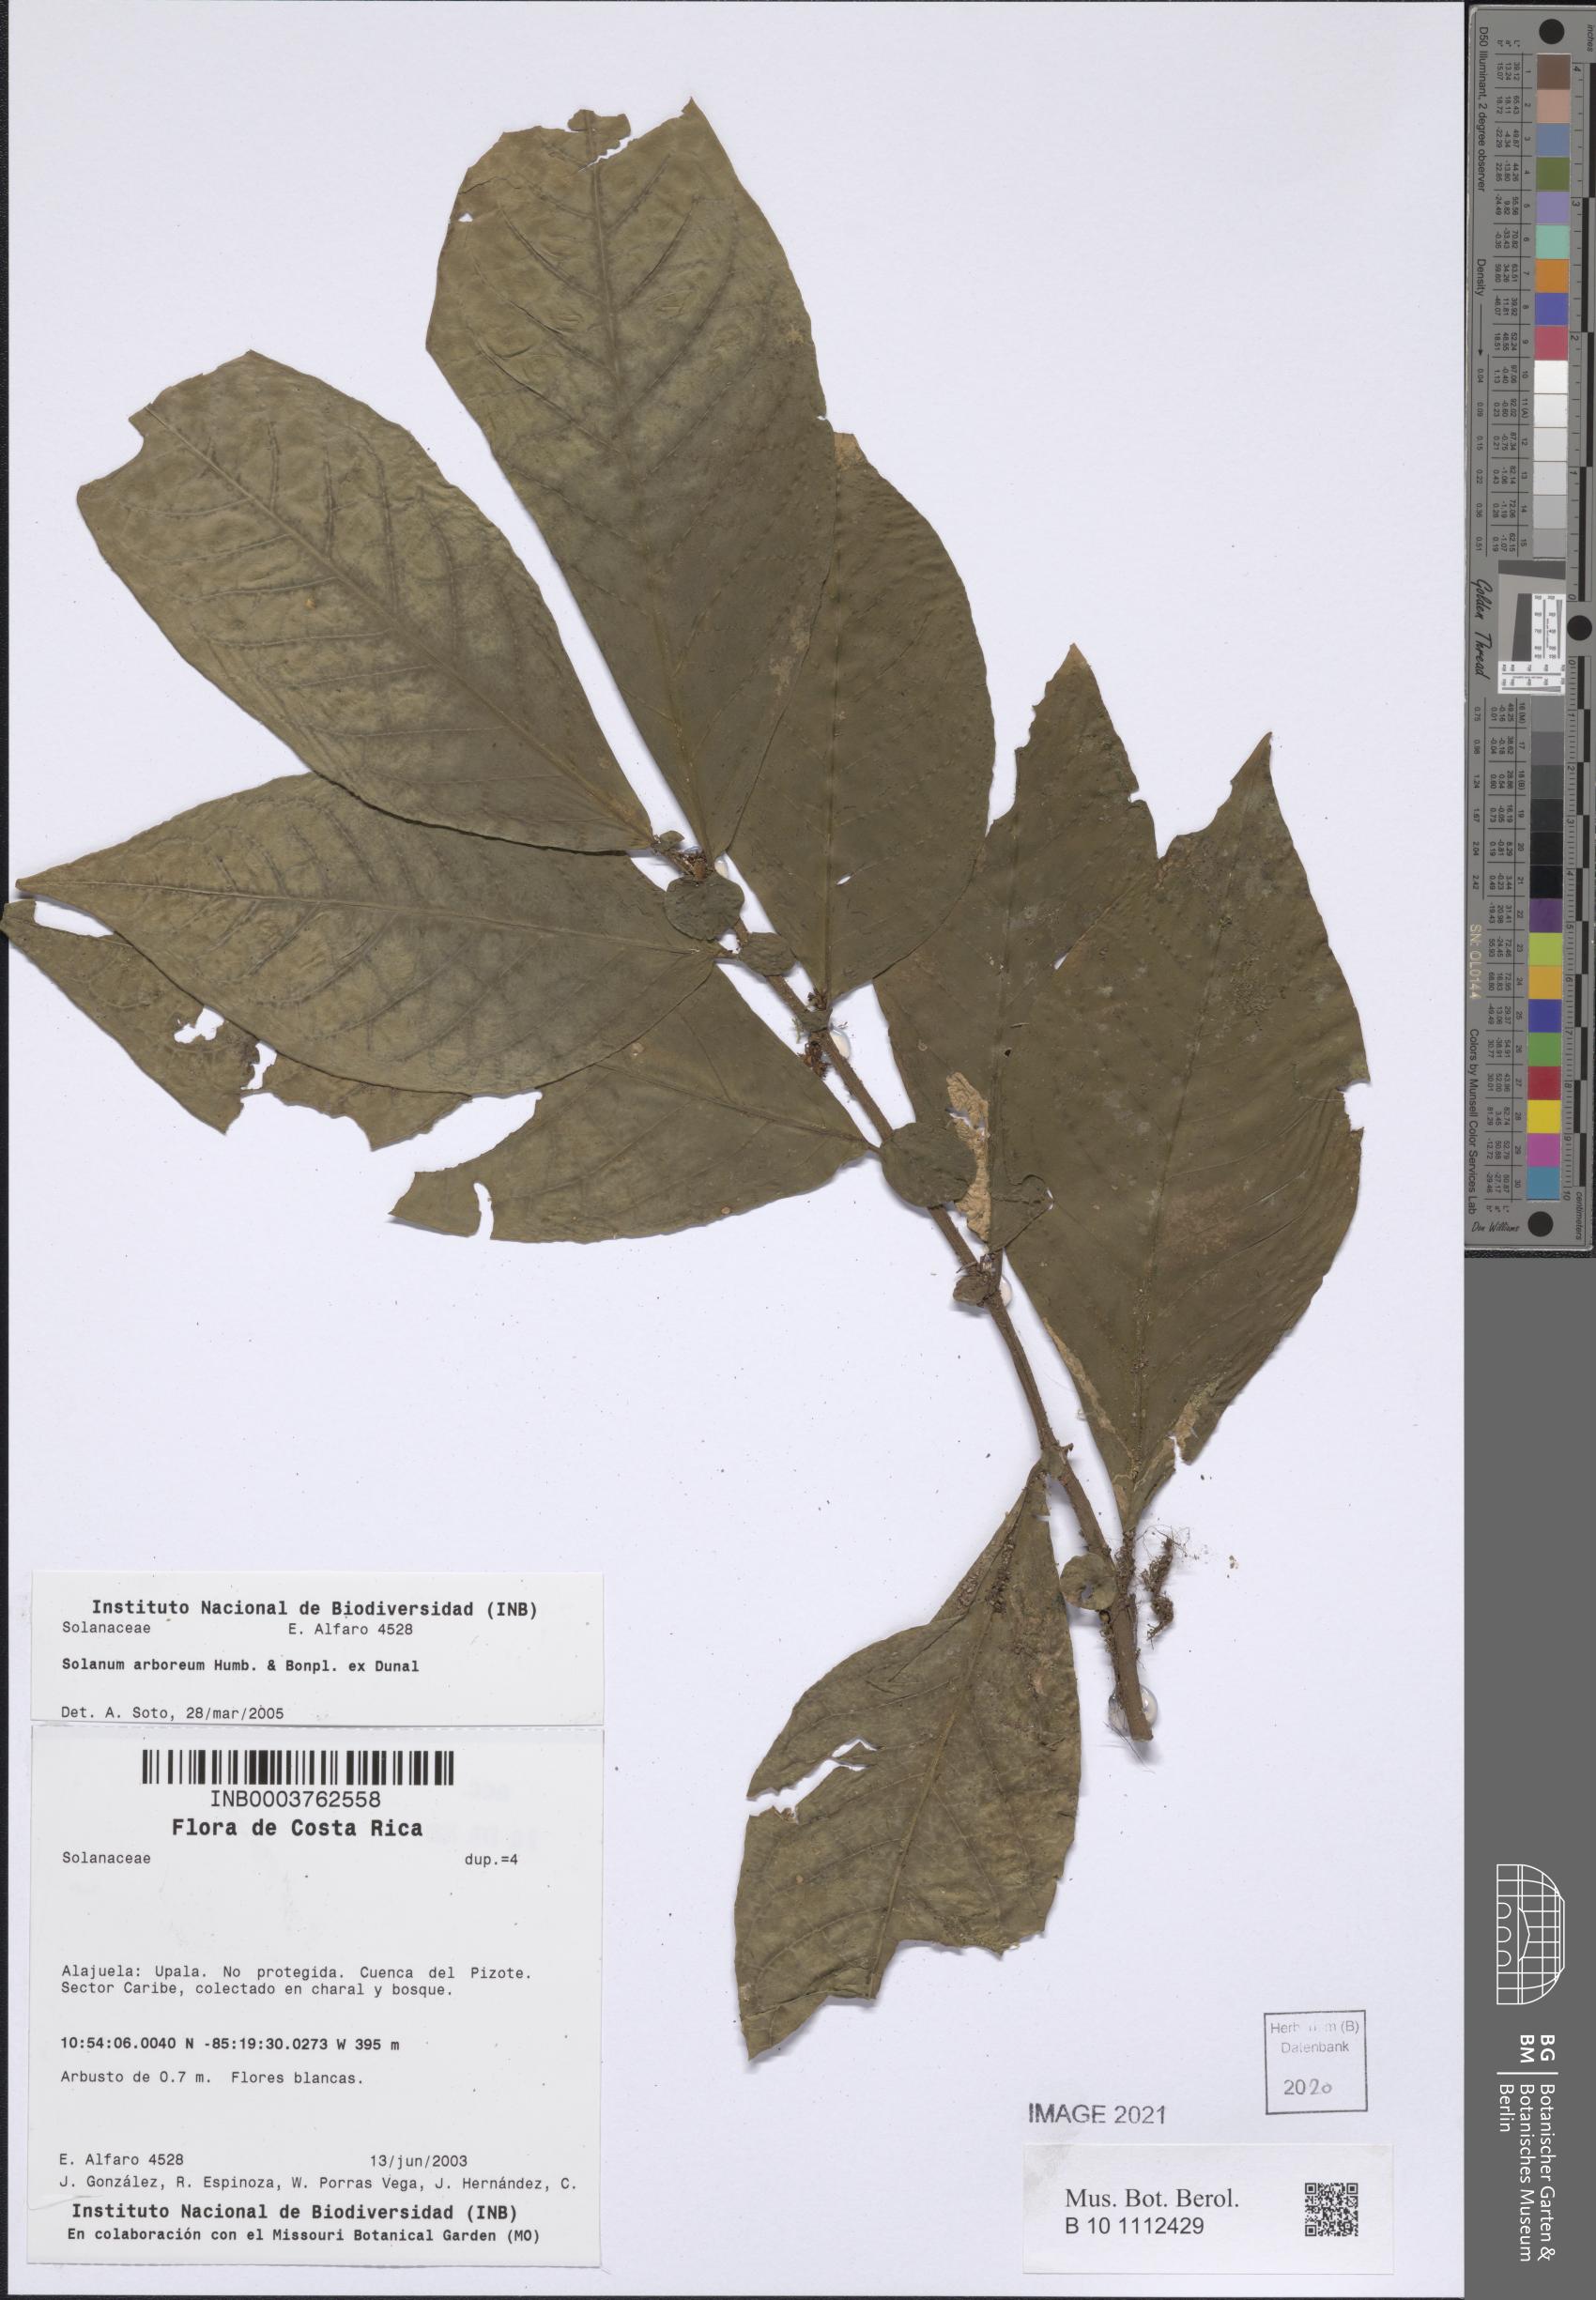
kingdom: Plantae
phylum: Tracheophyta
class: Magnoliopsida
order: Solanales
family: Solanaceae
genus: Solanum
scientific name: Solanum arboreum
